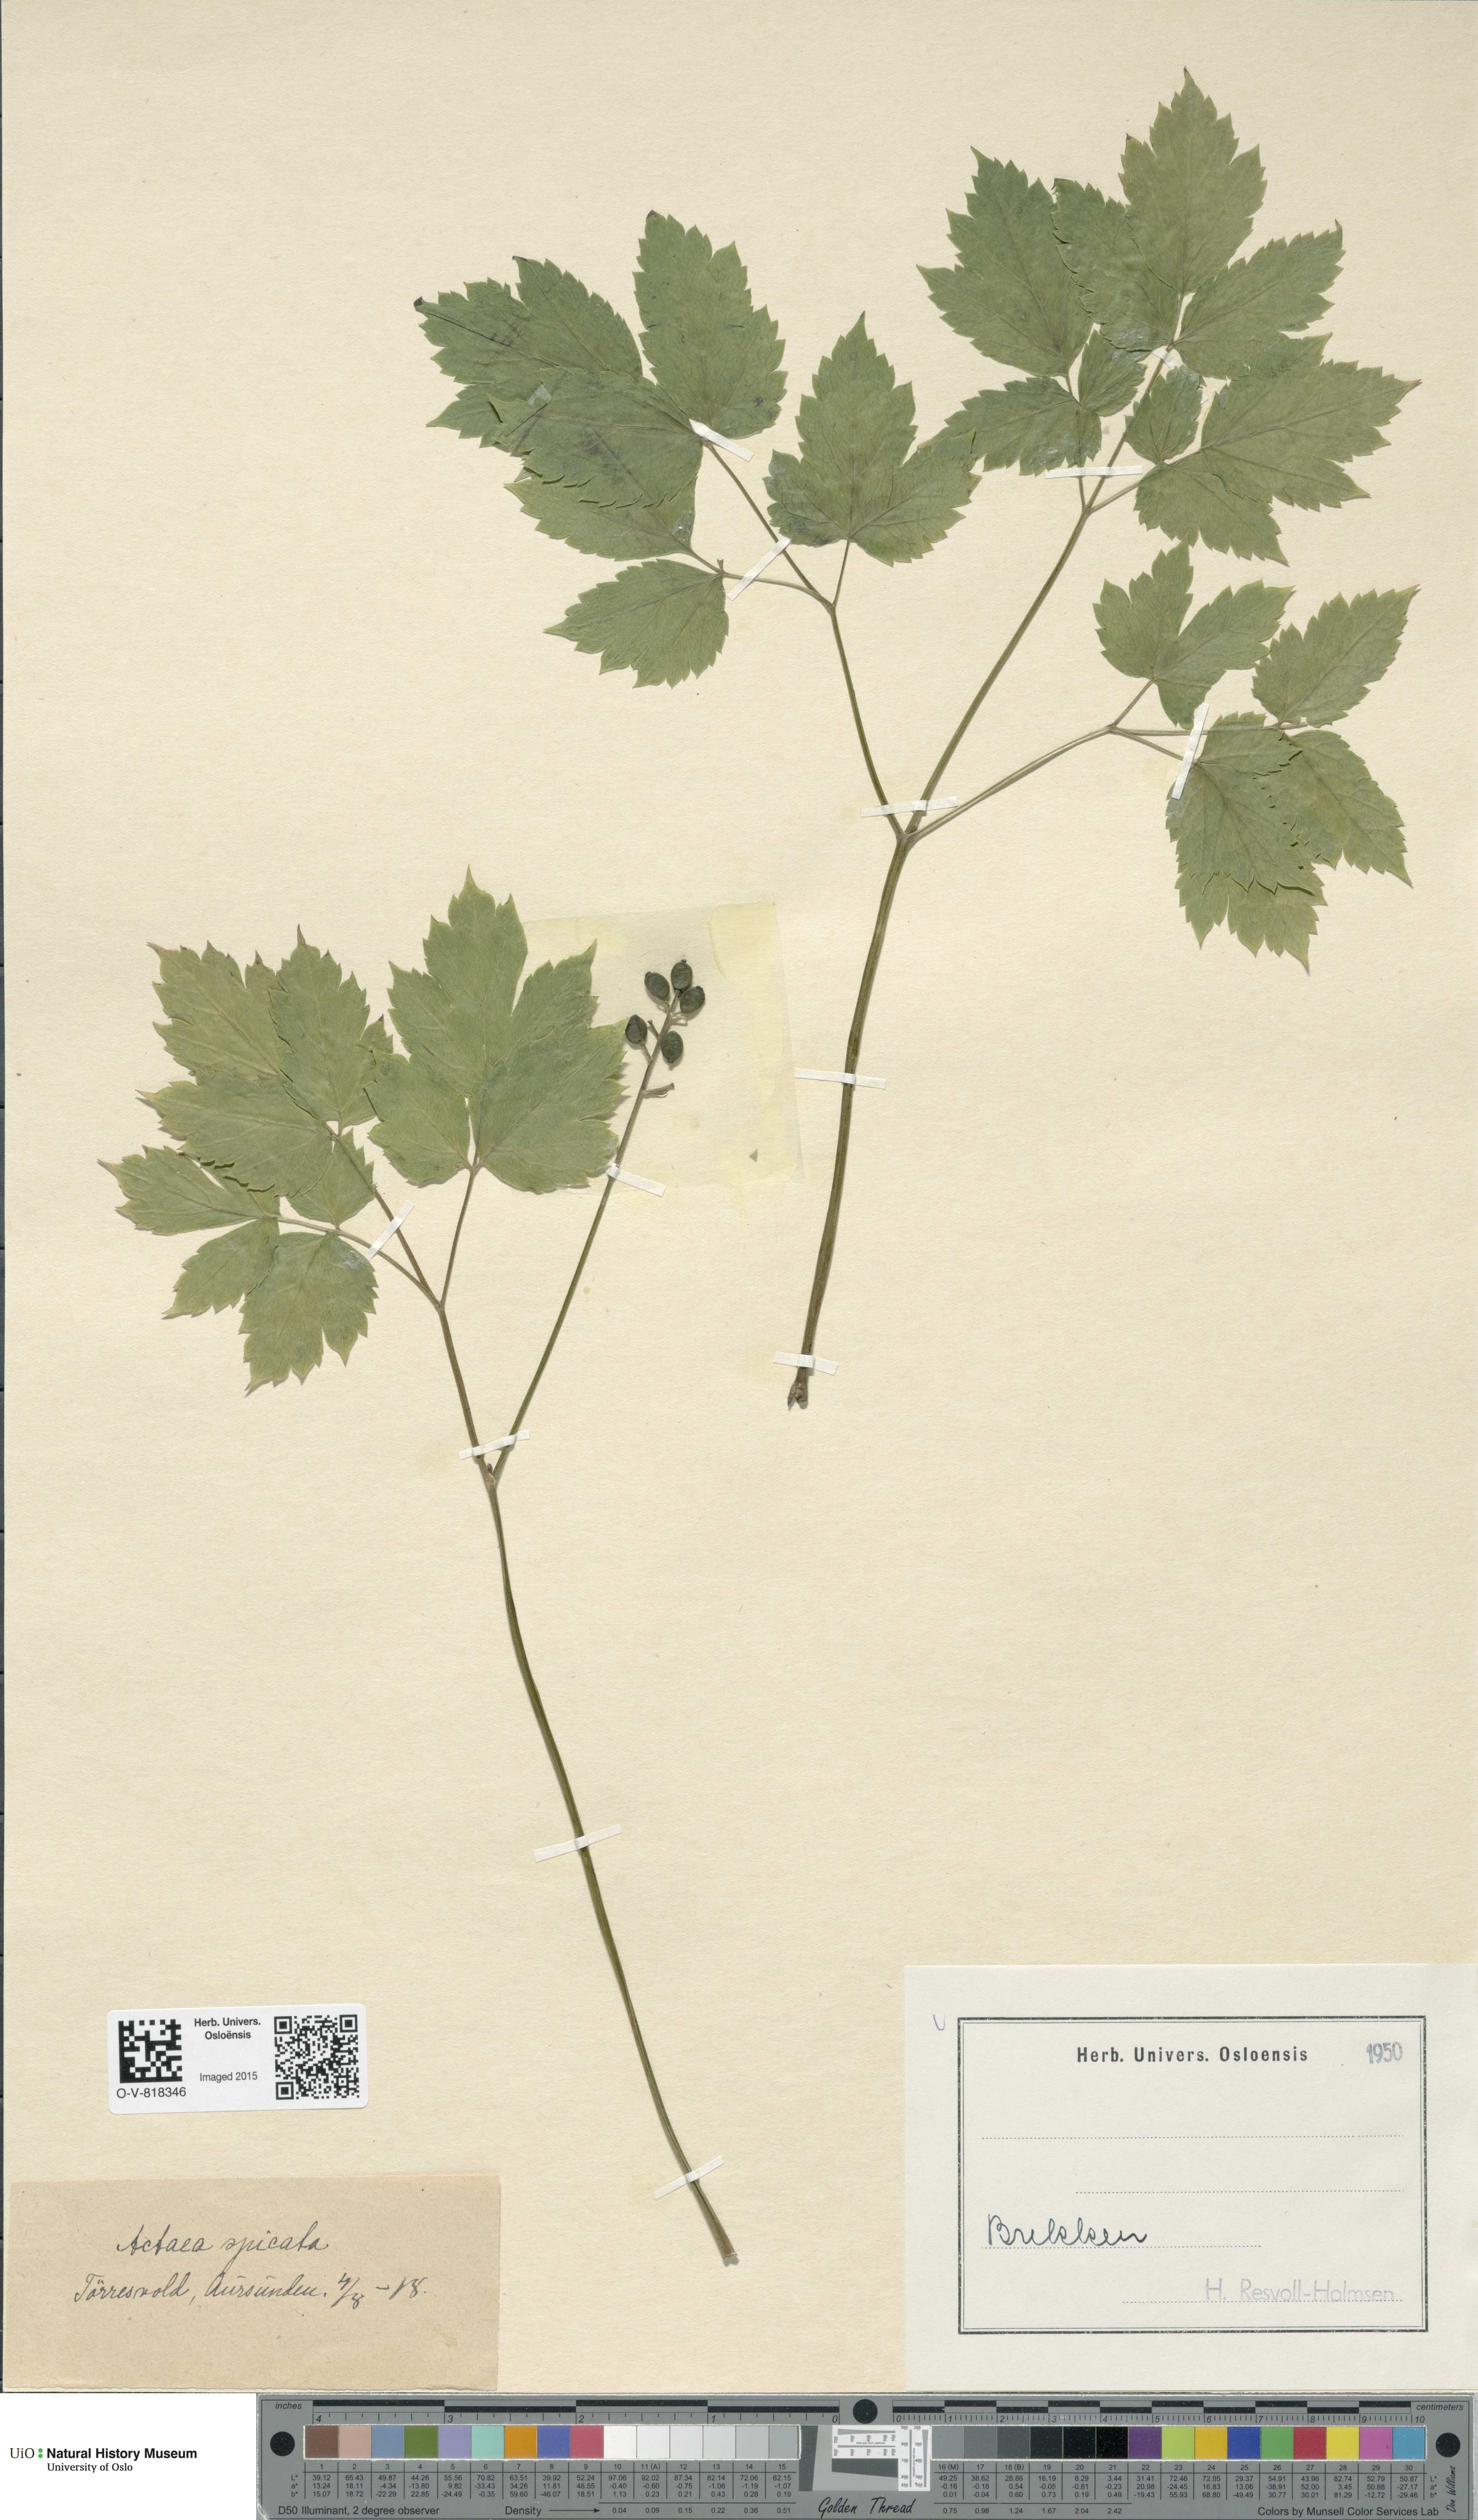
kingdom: Plantae
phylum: Tracheophyta
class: Magnoliopsida
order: Ranunculales
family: Ranunculaceae
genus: Actaea
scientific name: Actaea spicata
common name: Baneberry
